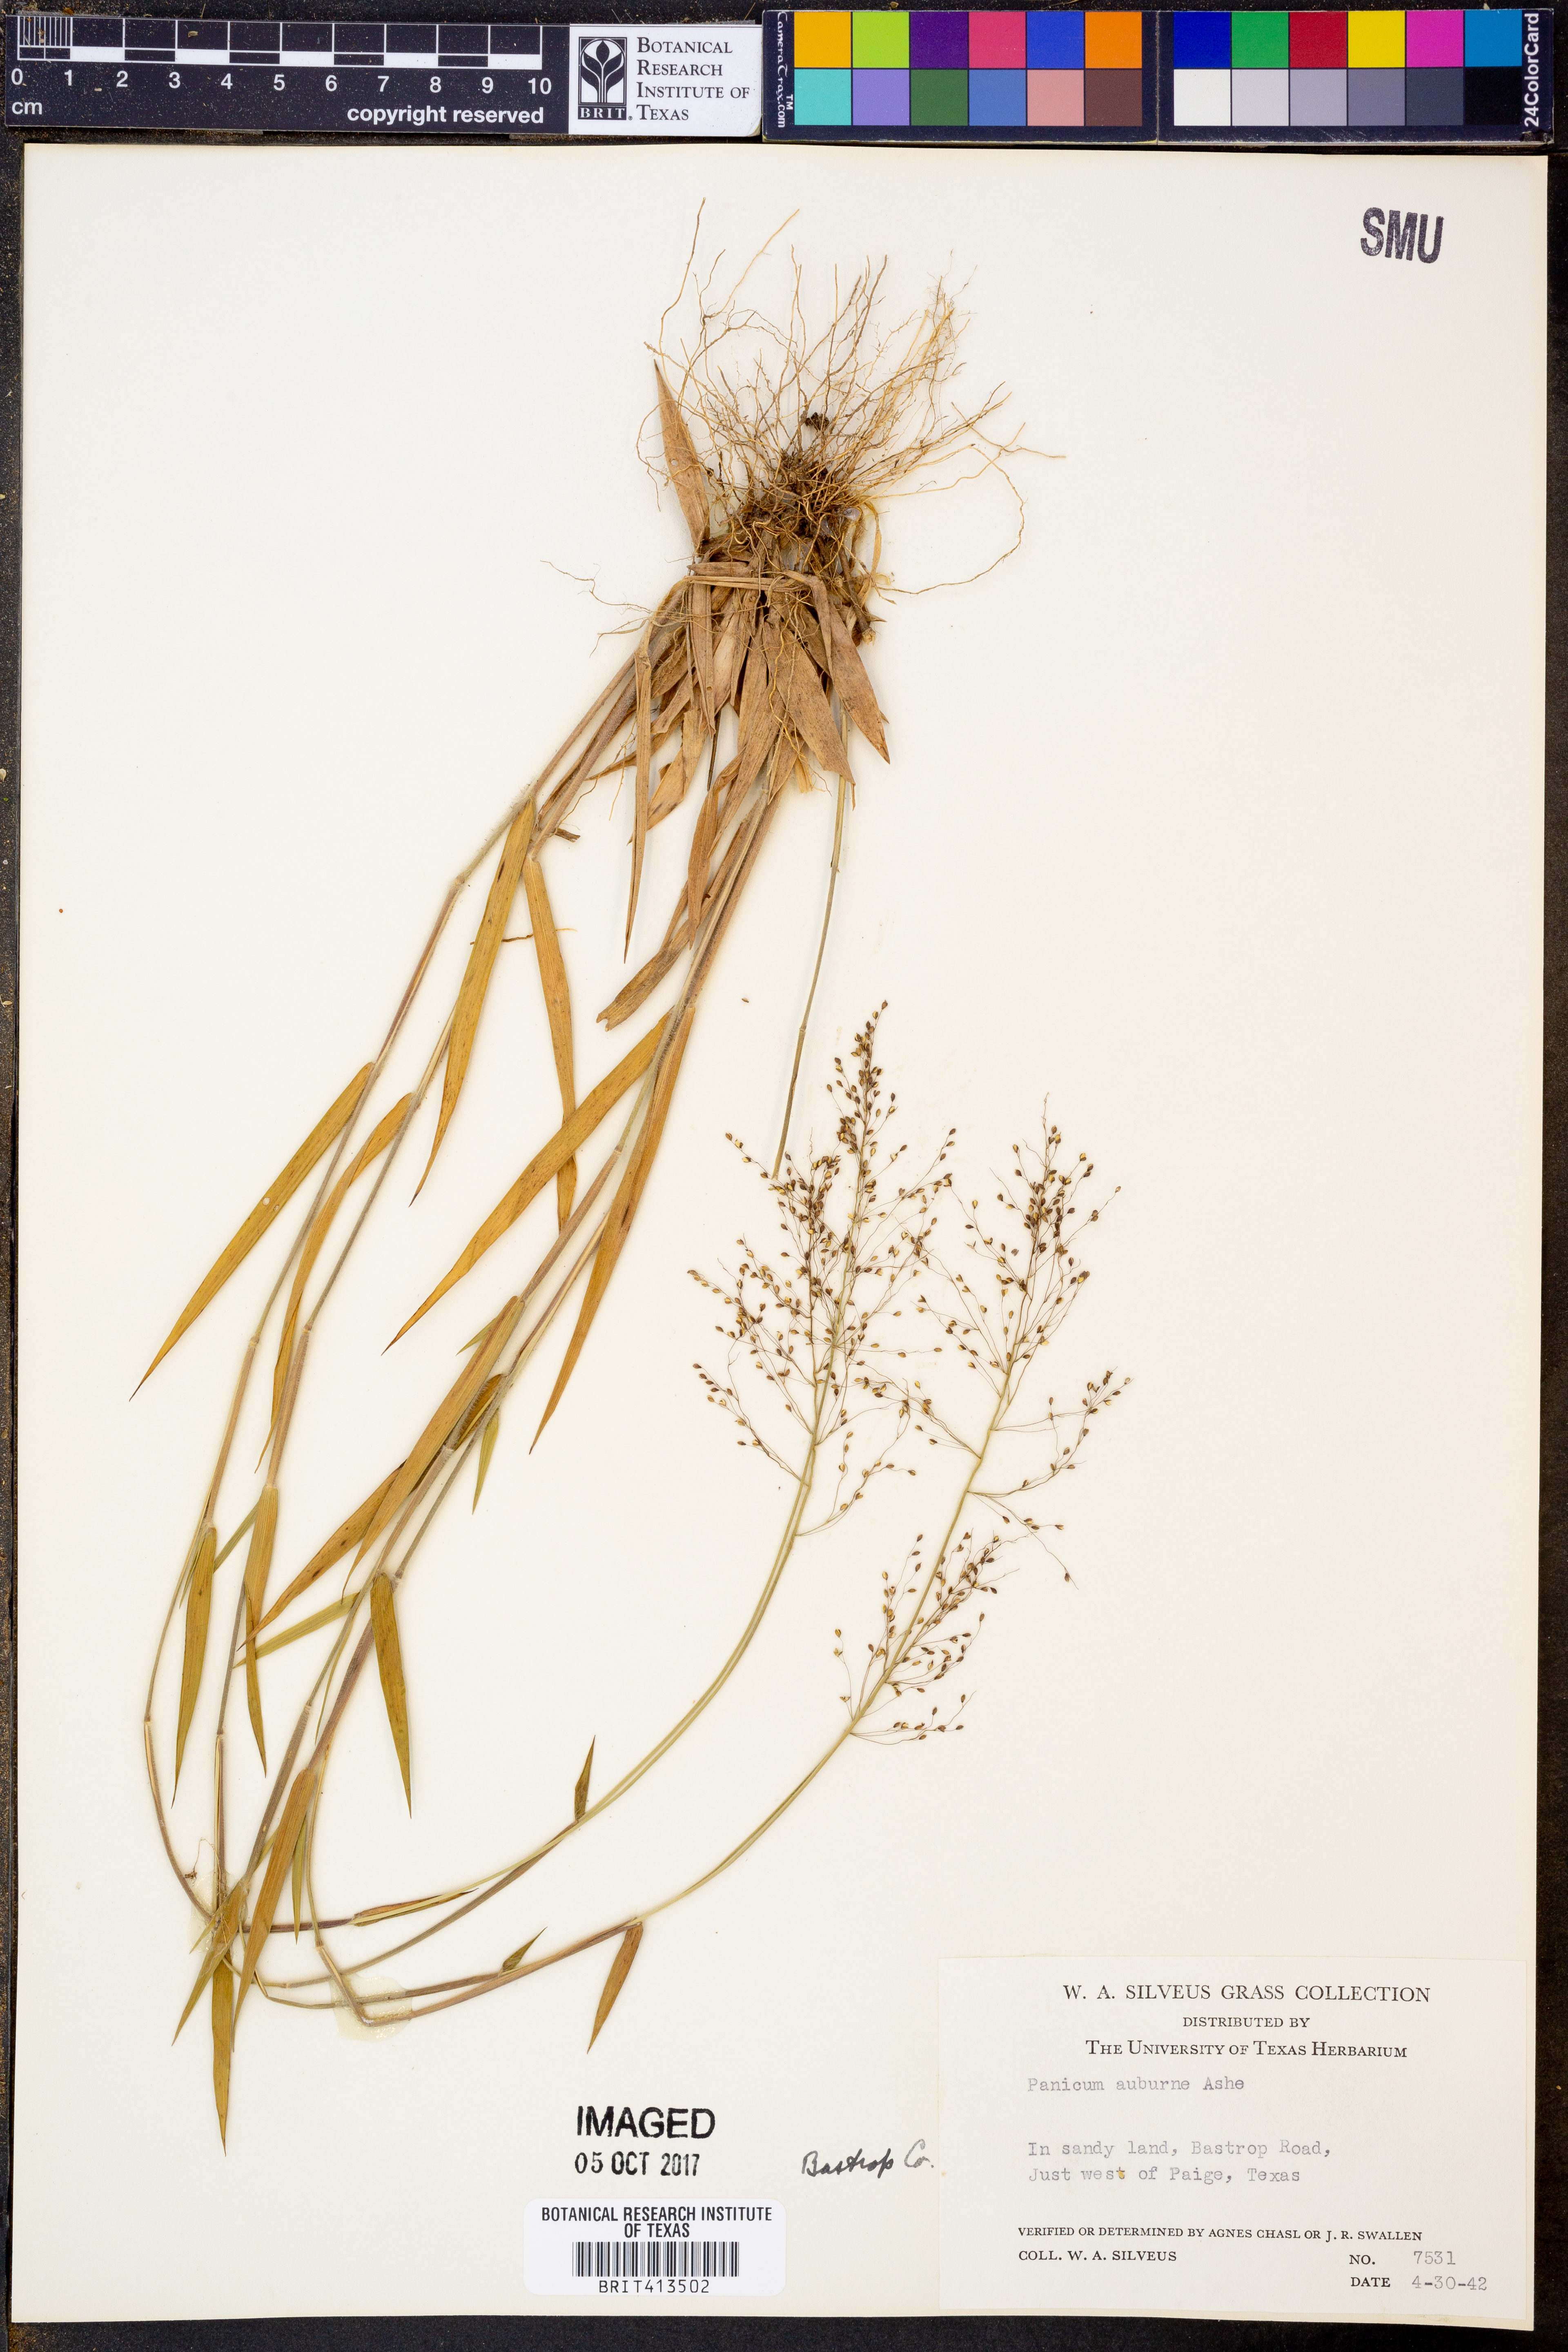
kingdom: Plantae
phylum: Tracheophyta
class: Liliopsida
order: Poales
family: Poaceae
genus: Dichanthelium
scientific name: Dichanthelium acuminatum
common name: Hairy panic grass
